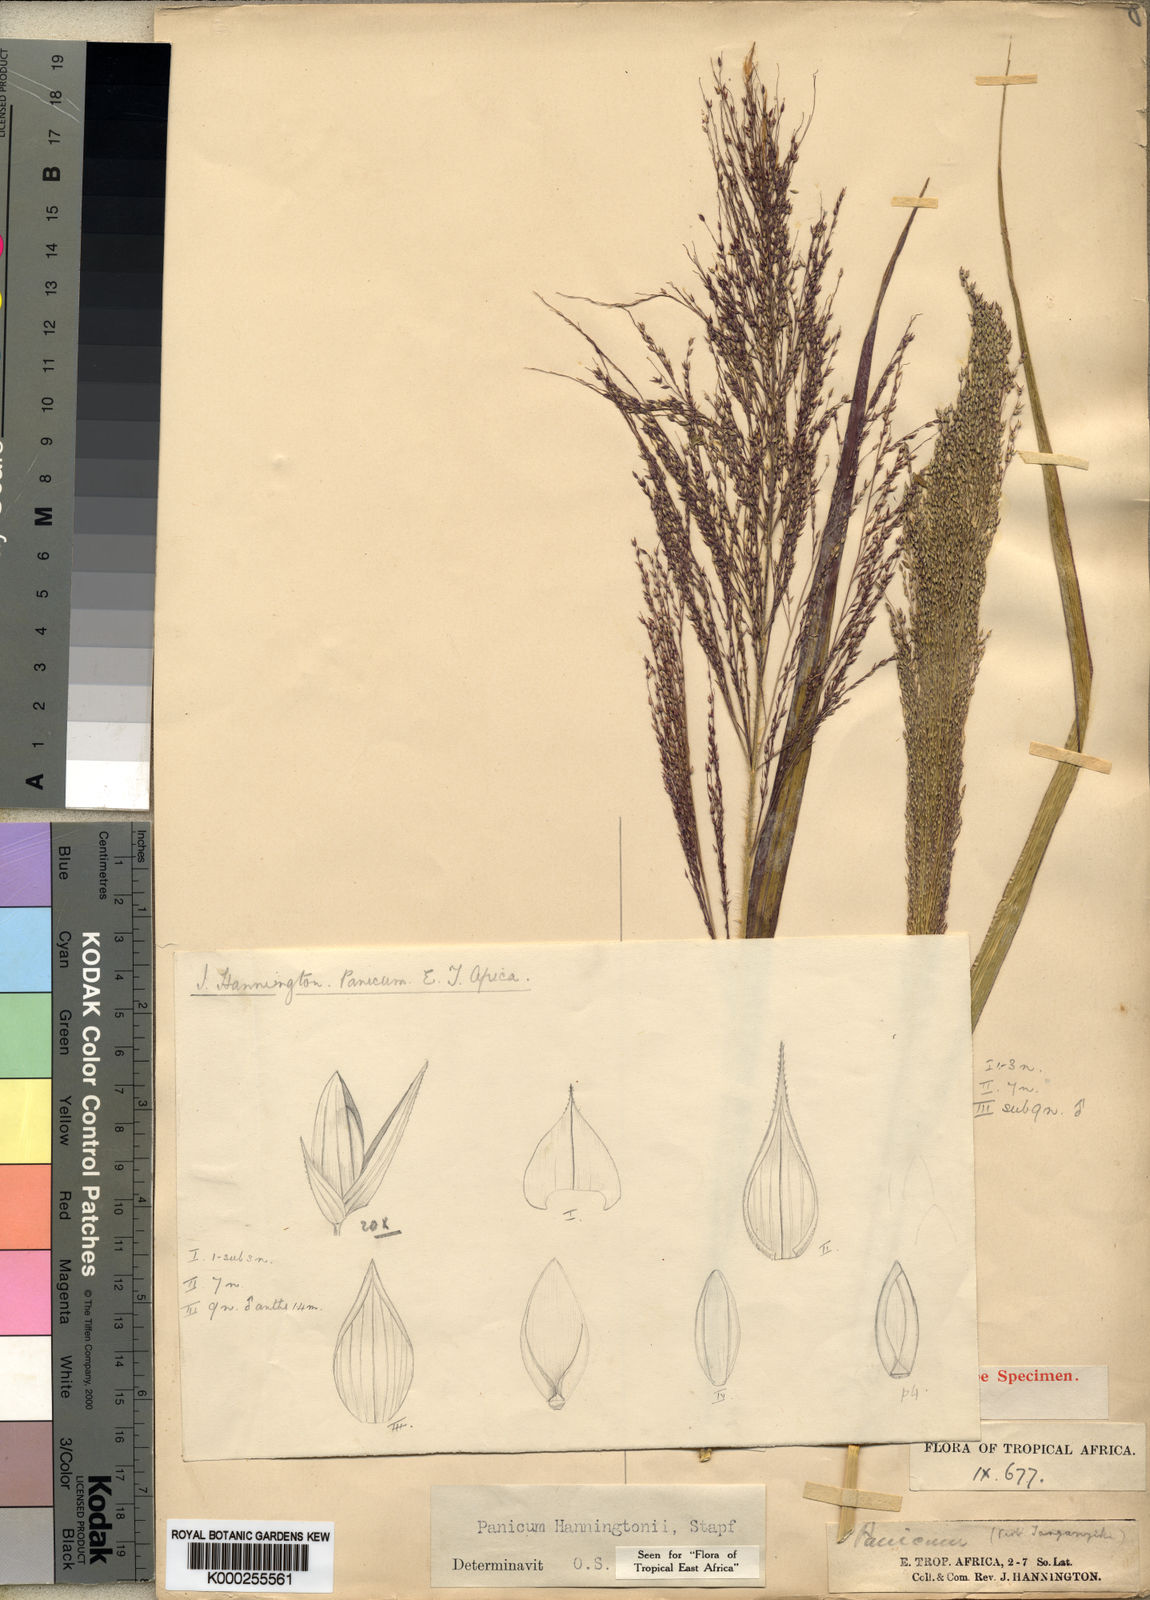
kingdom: Plantae
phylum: Tracheophyta
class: Liliopsida
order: Poales
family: Poaceae
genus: Panicum
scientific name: Panicum hanningtonii
